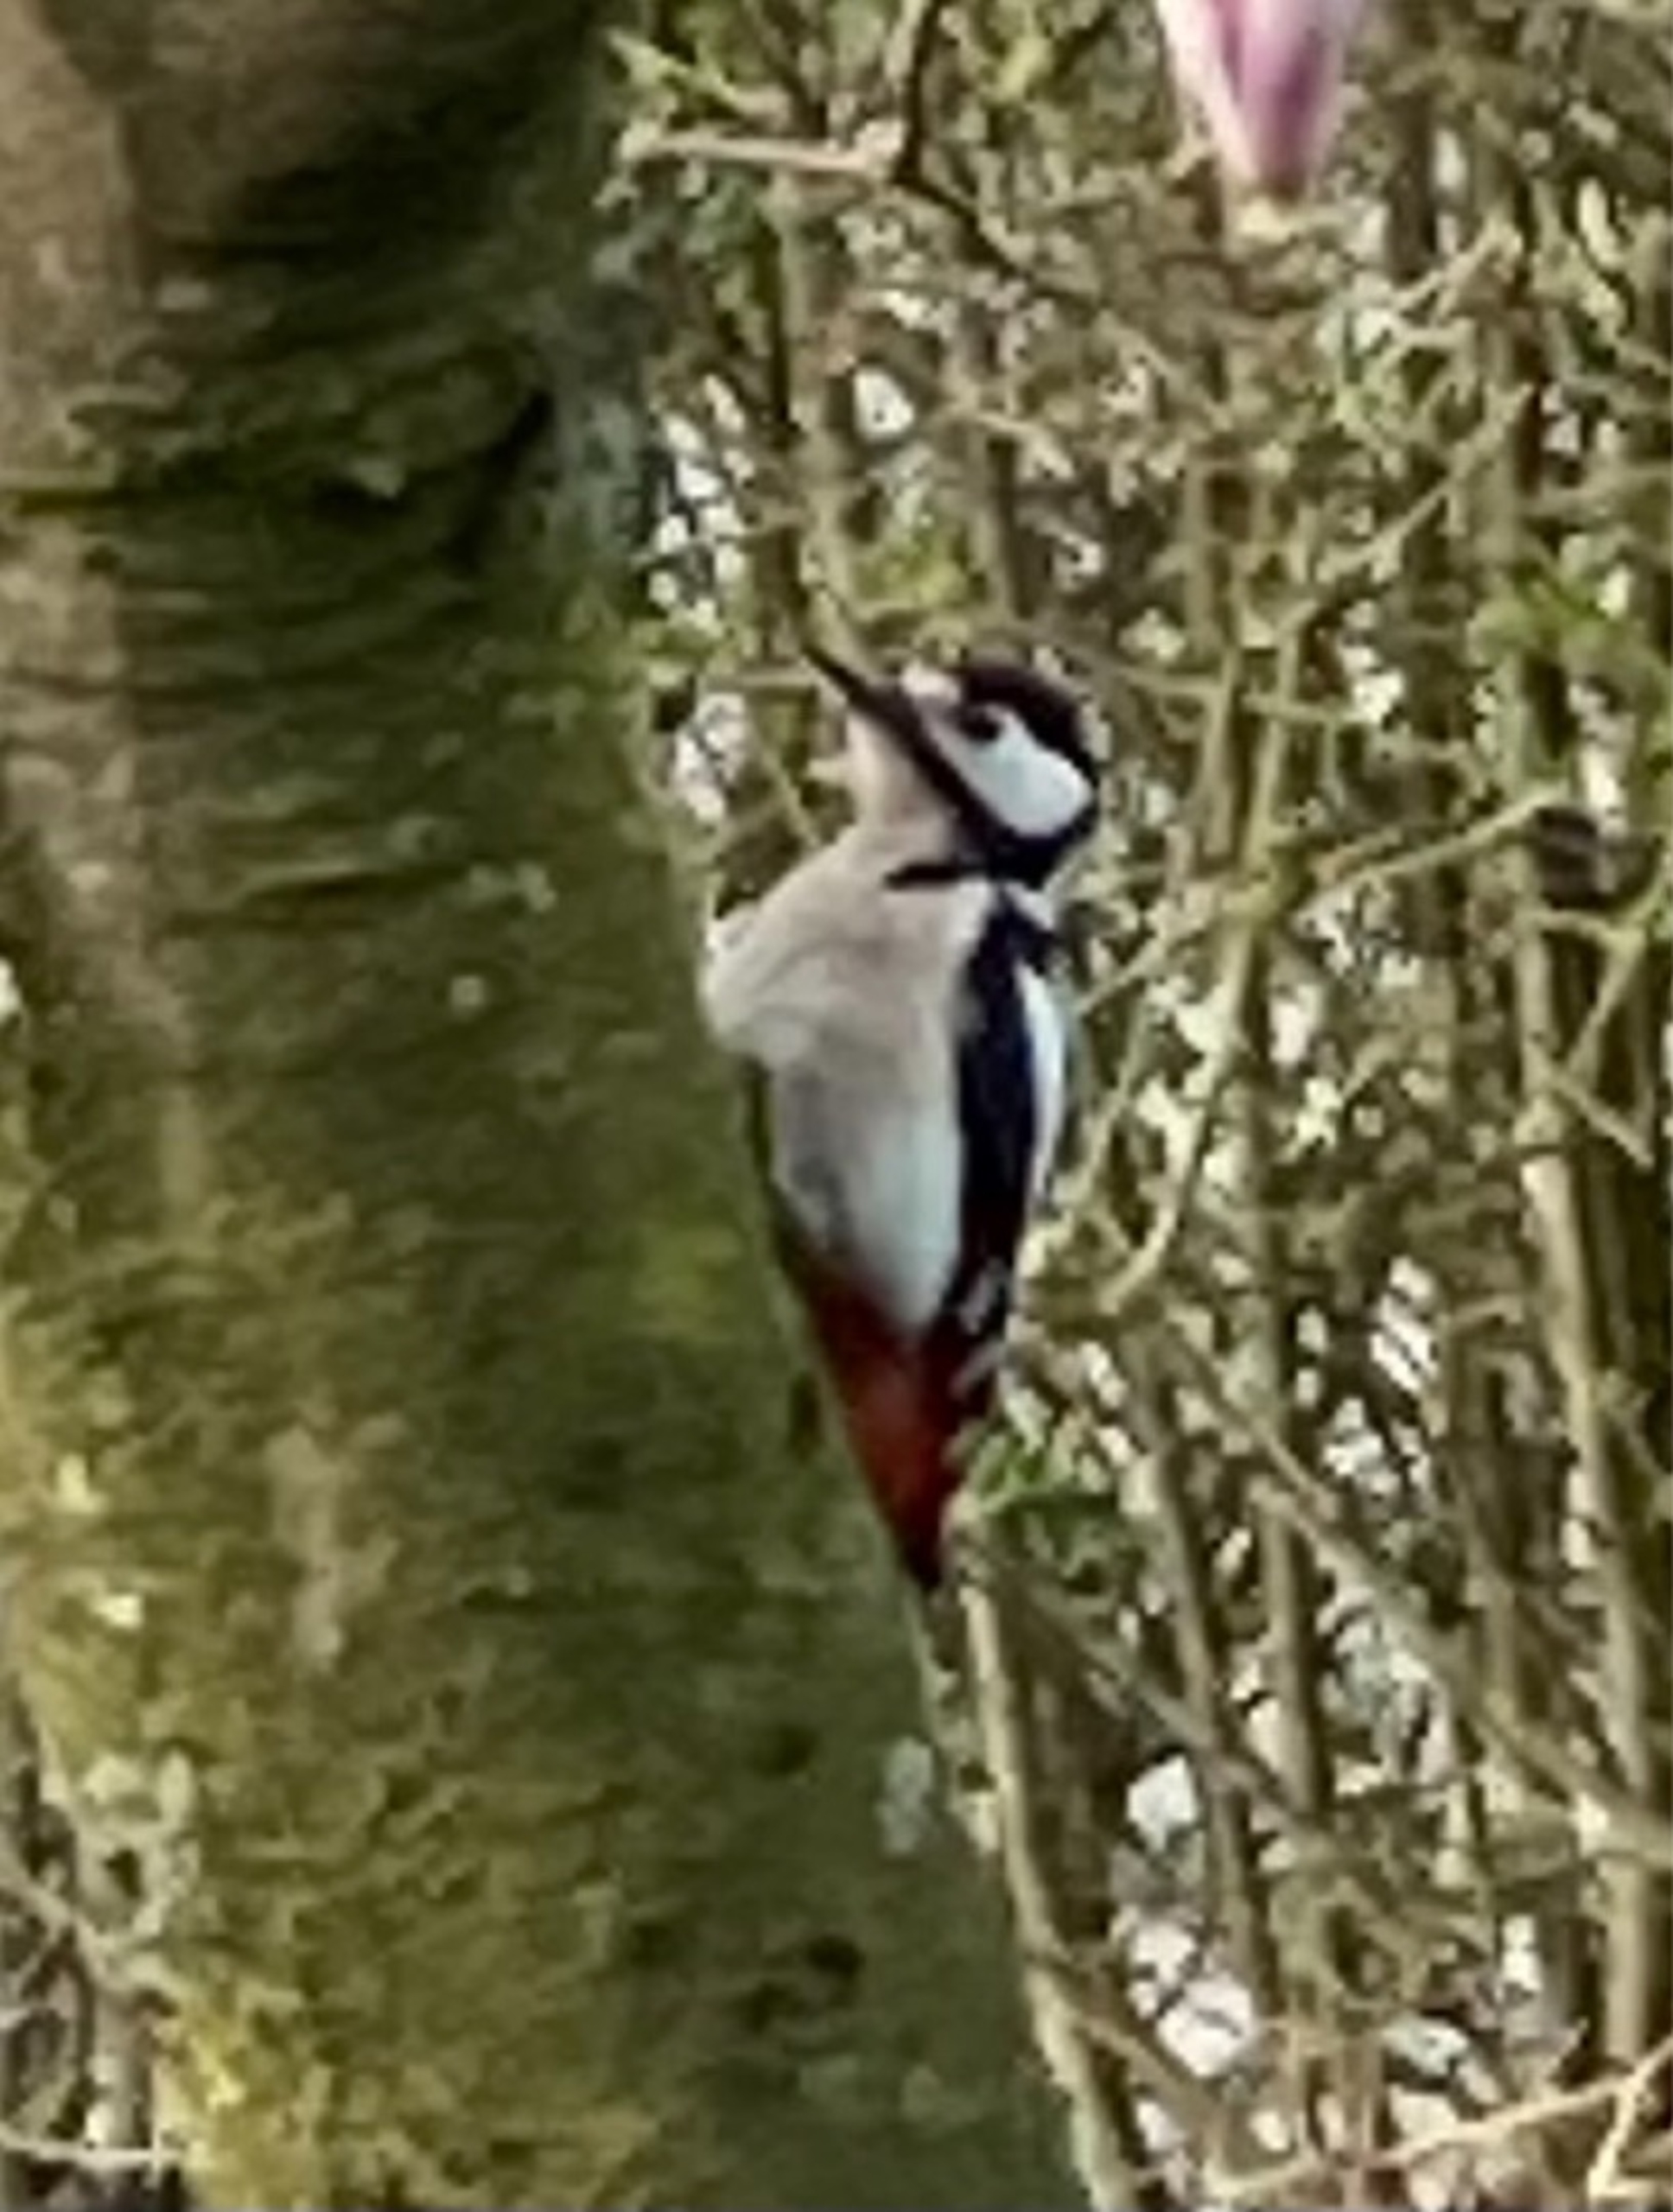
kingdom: Animalia
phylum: Chordata
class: Aves
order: Piciformes
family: Picidae
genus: Dendrocopos
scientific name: Dendrocopos major
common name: Stor flagspætte
